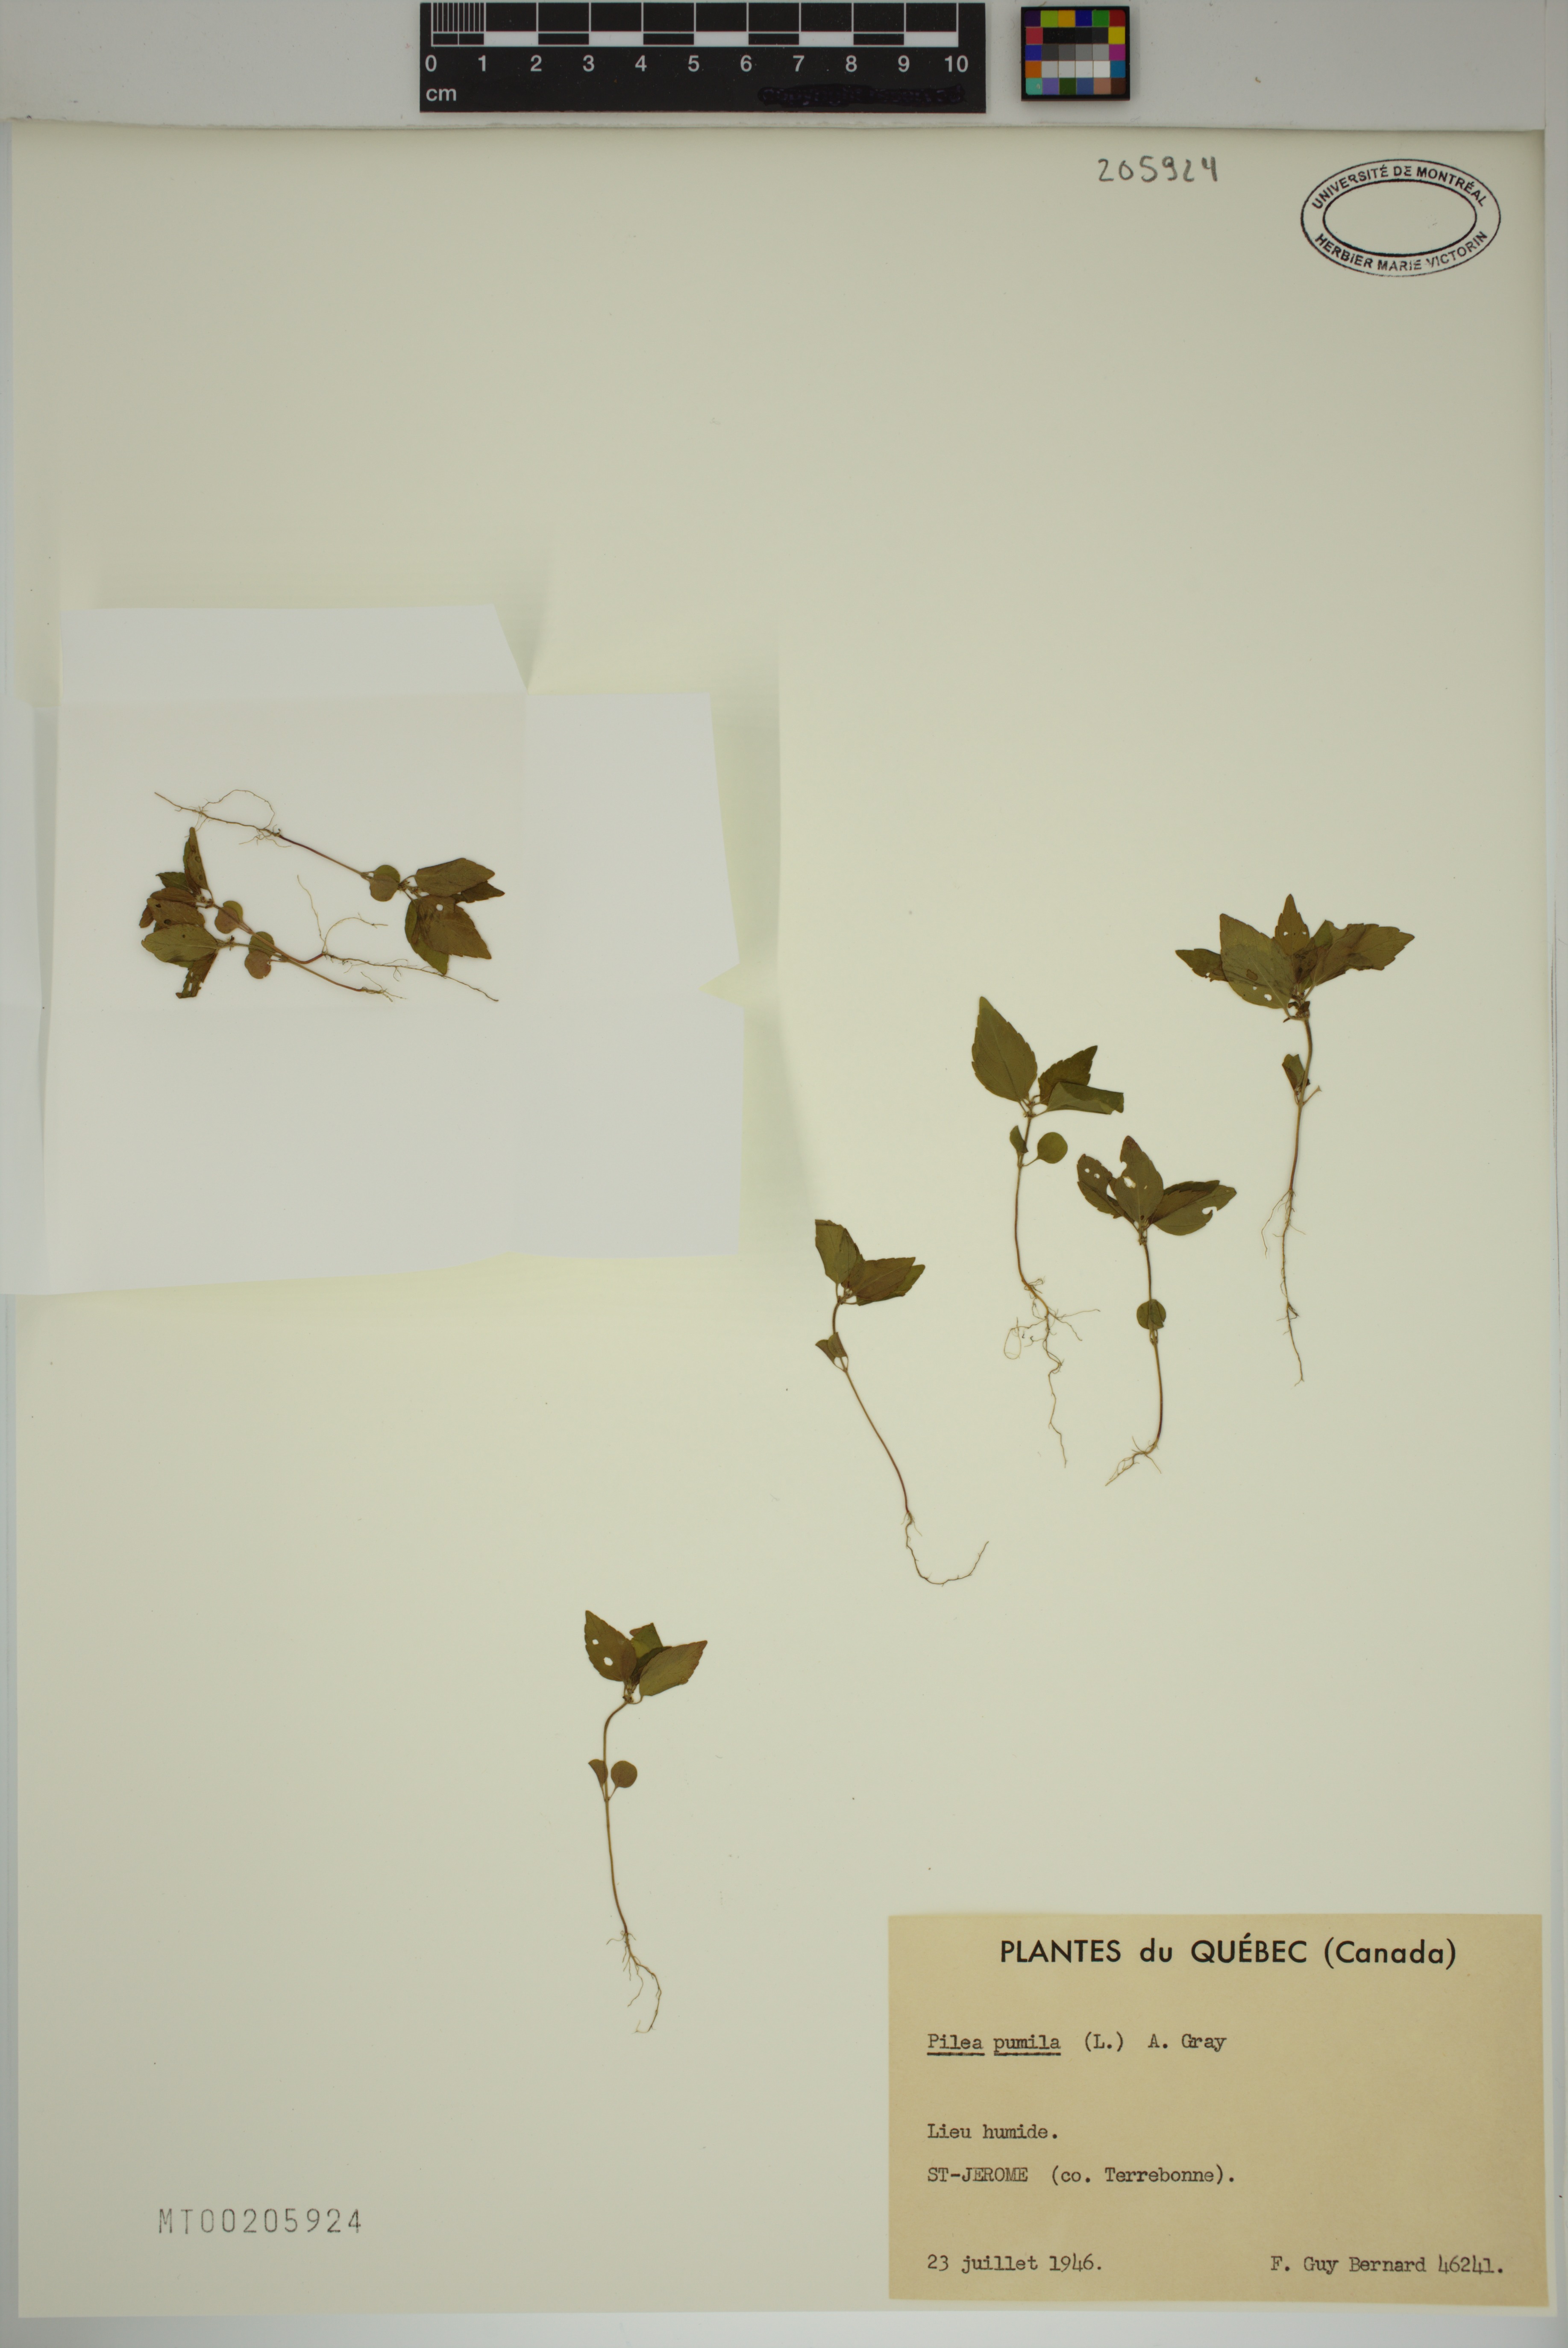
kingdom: Plantae
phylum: Tracheophyta
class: Magnoliopsida
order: Rosales
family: Urticaceae
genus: Pilea
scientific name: Pilea
